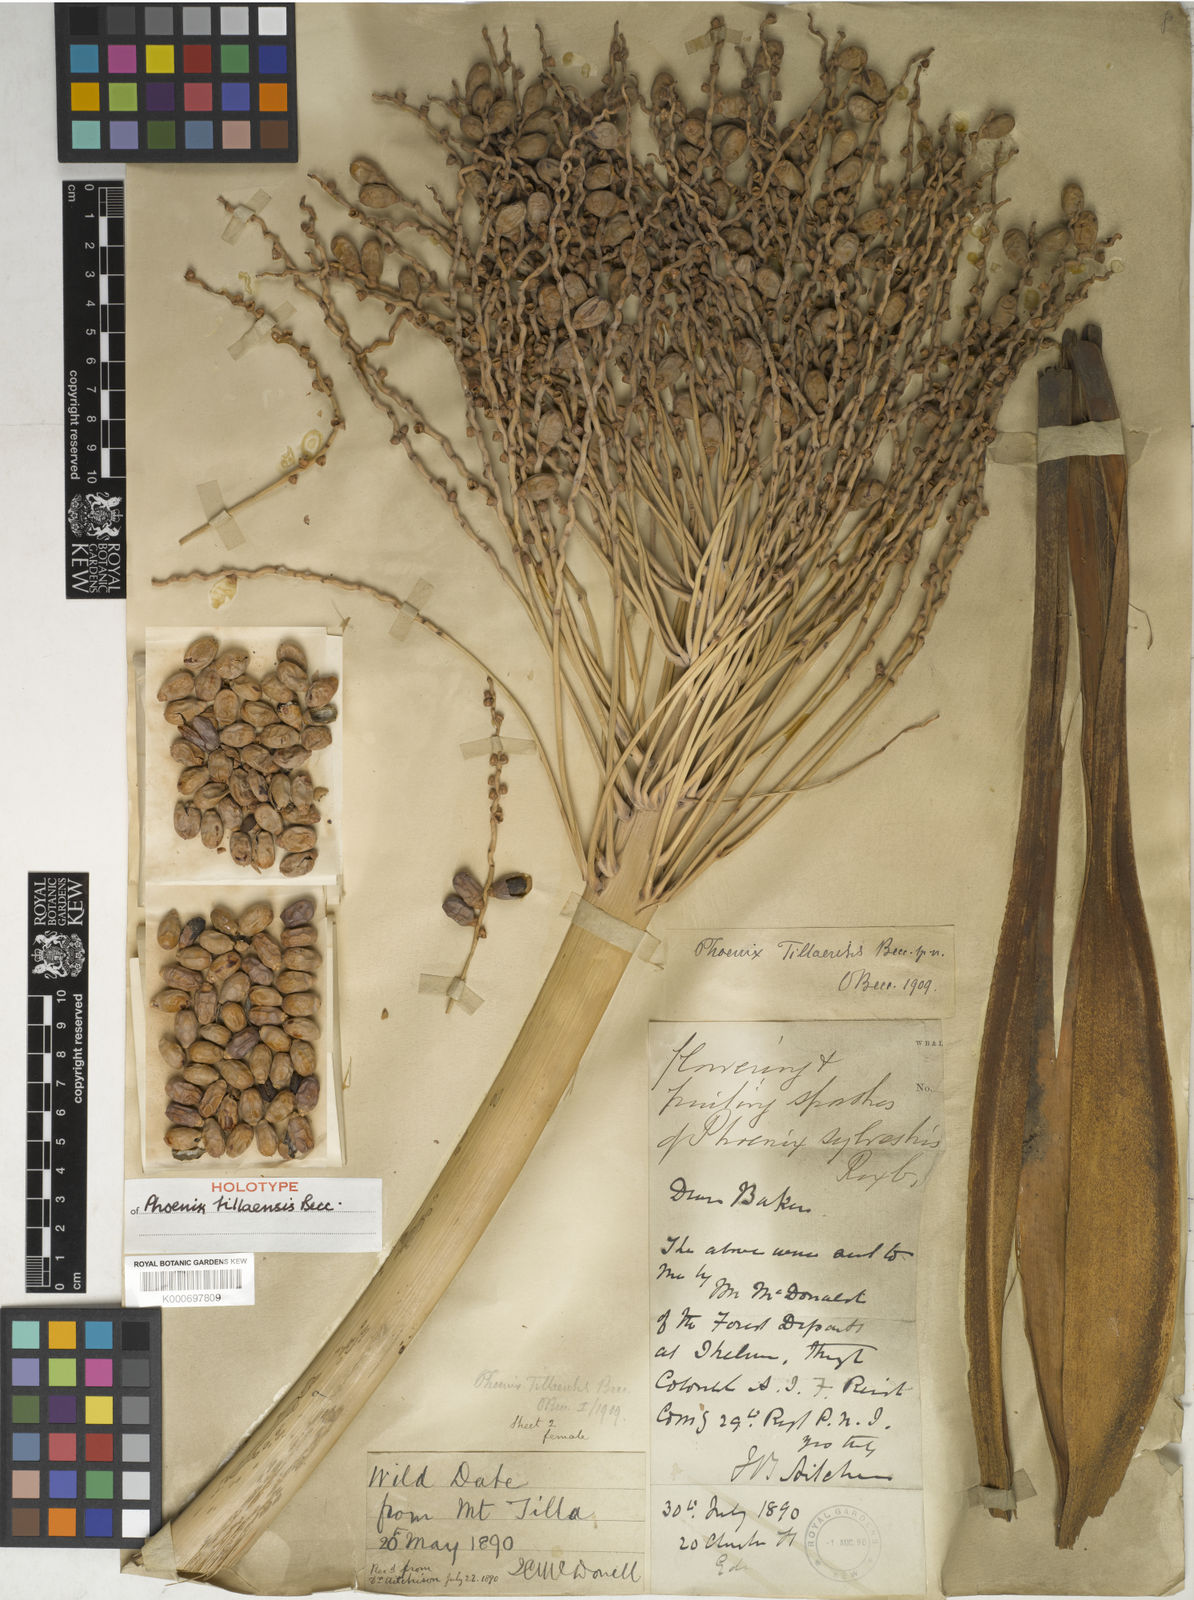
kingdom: Plantae
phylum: Tracheophyta
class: Liliopsida
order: Arecales
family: Arecaceae
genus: Phoenix
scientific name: Phoenix
